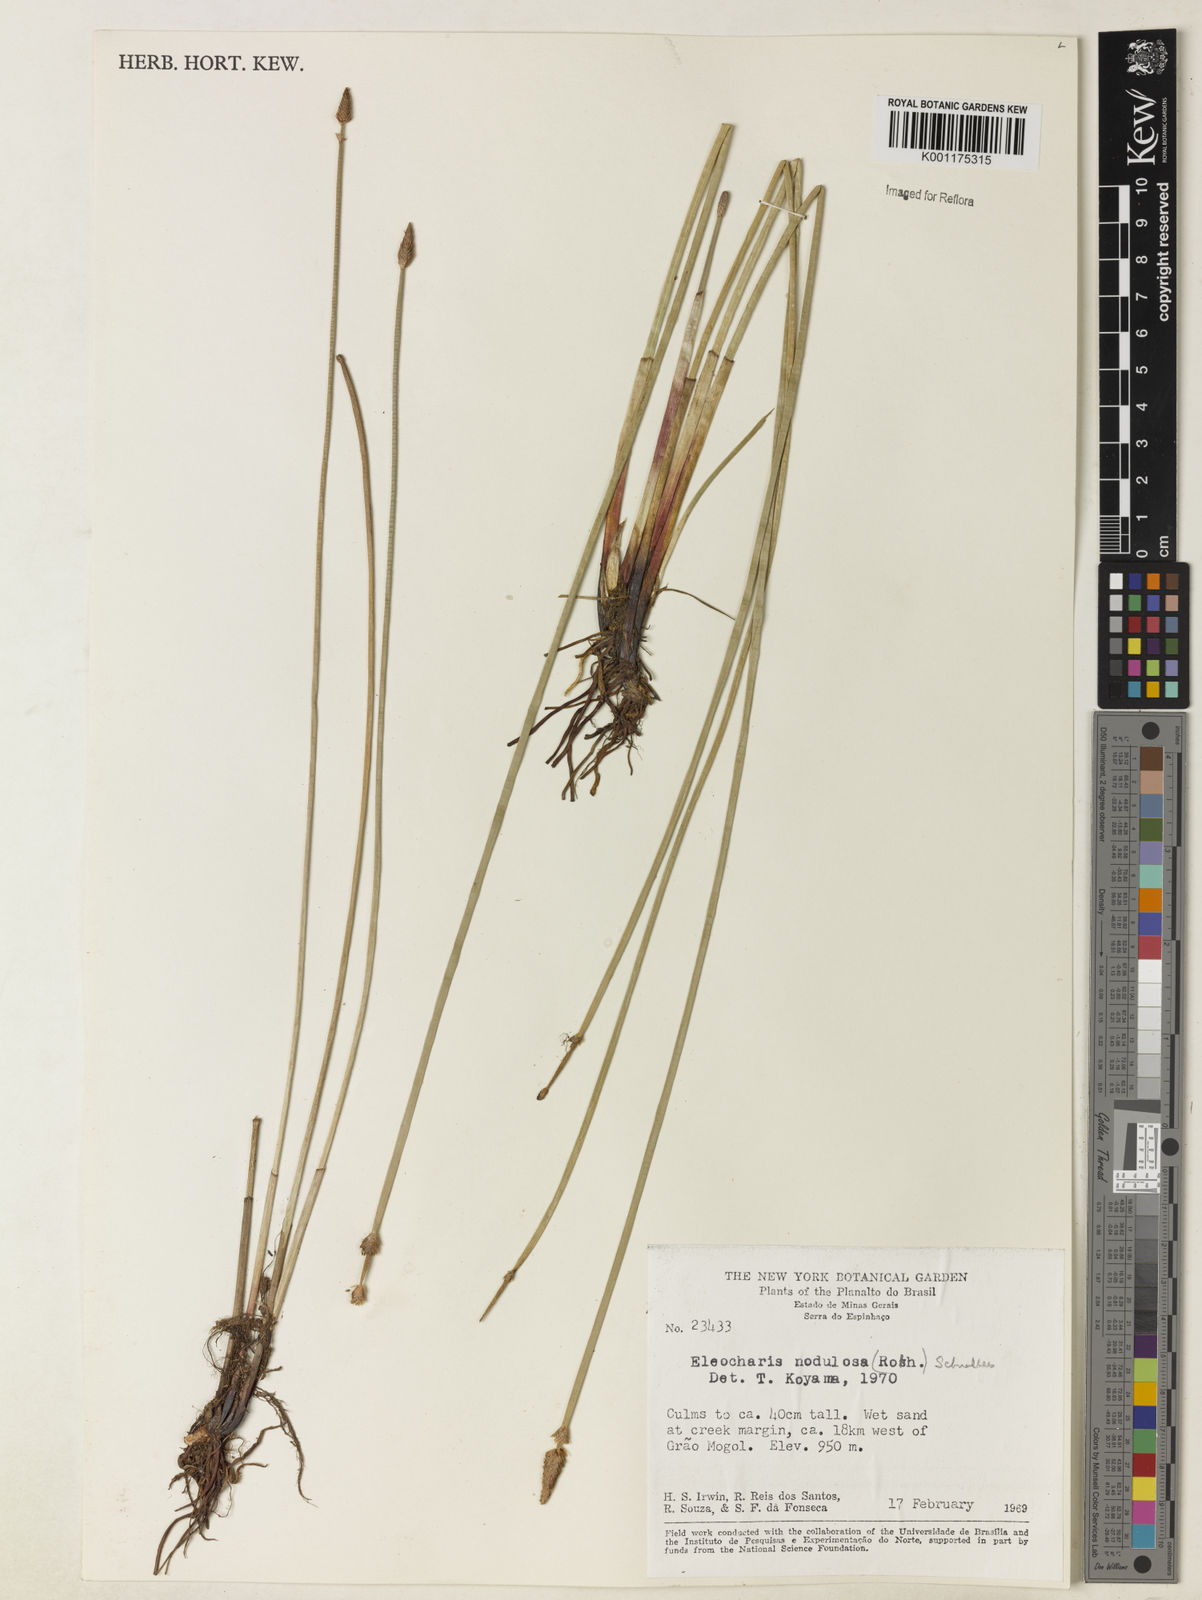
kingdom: Plantae
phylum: Tracheophyta
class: Liliopsida
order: Poales
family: Cyperaceae
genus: Eleocharis
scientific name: Eleocharis montana
